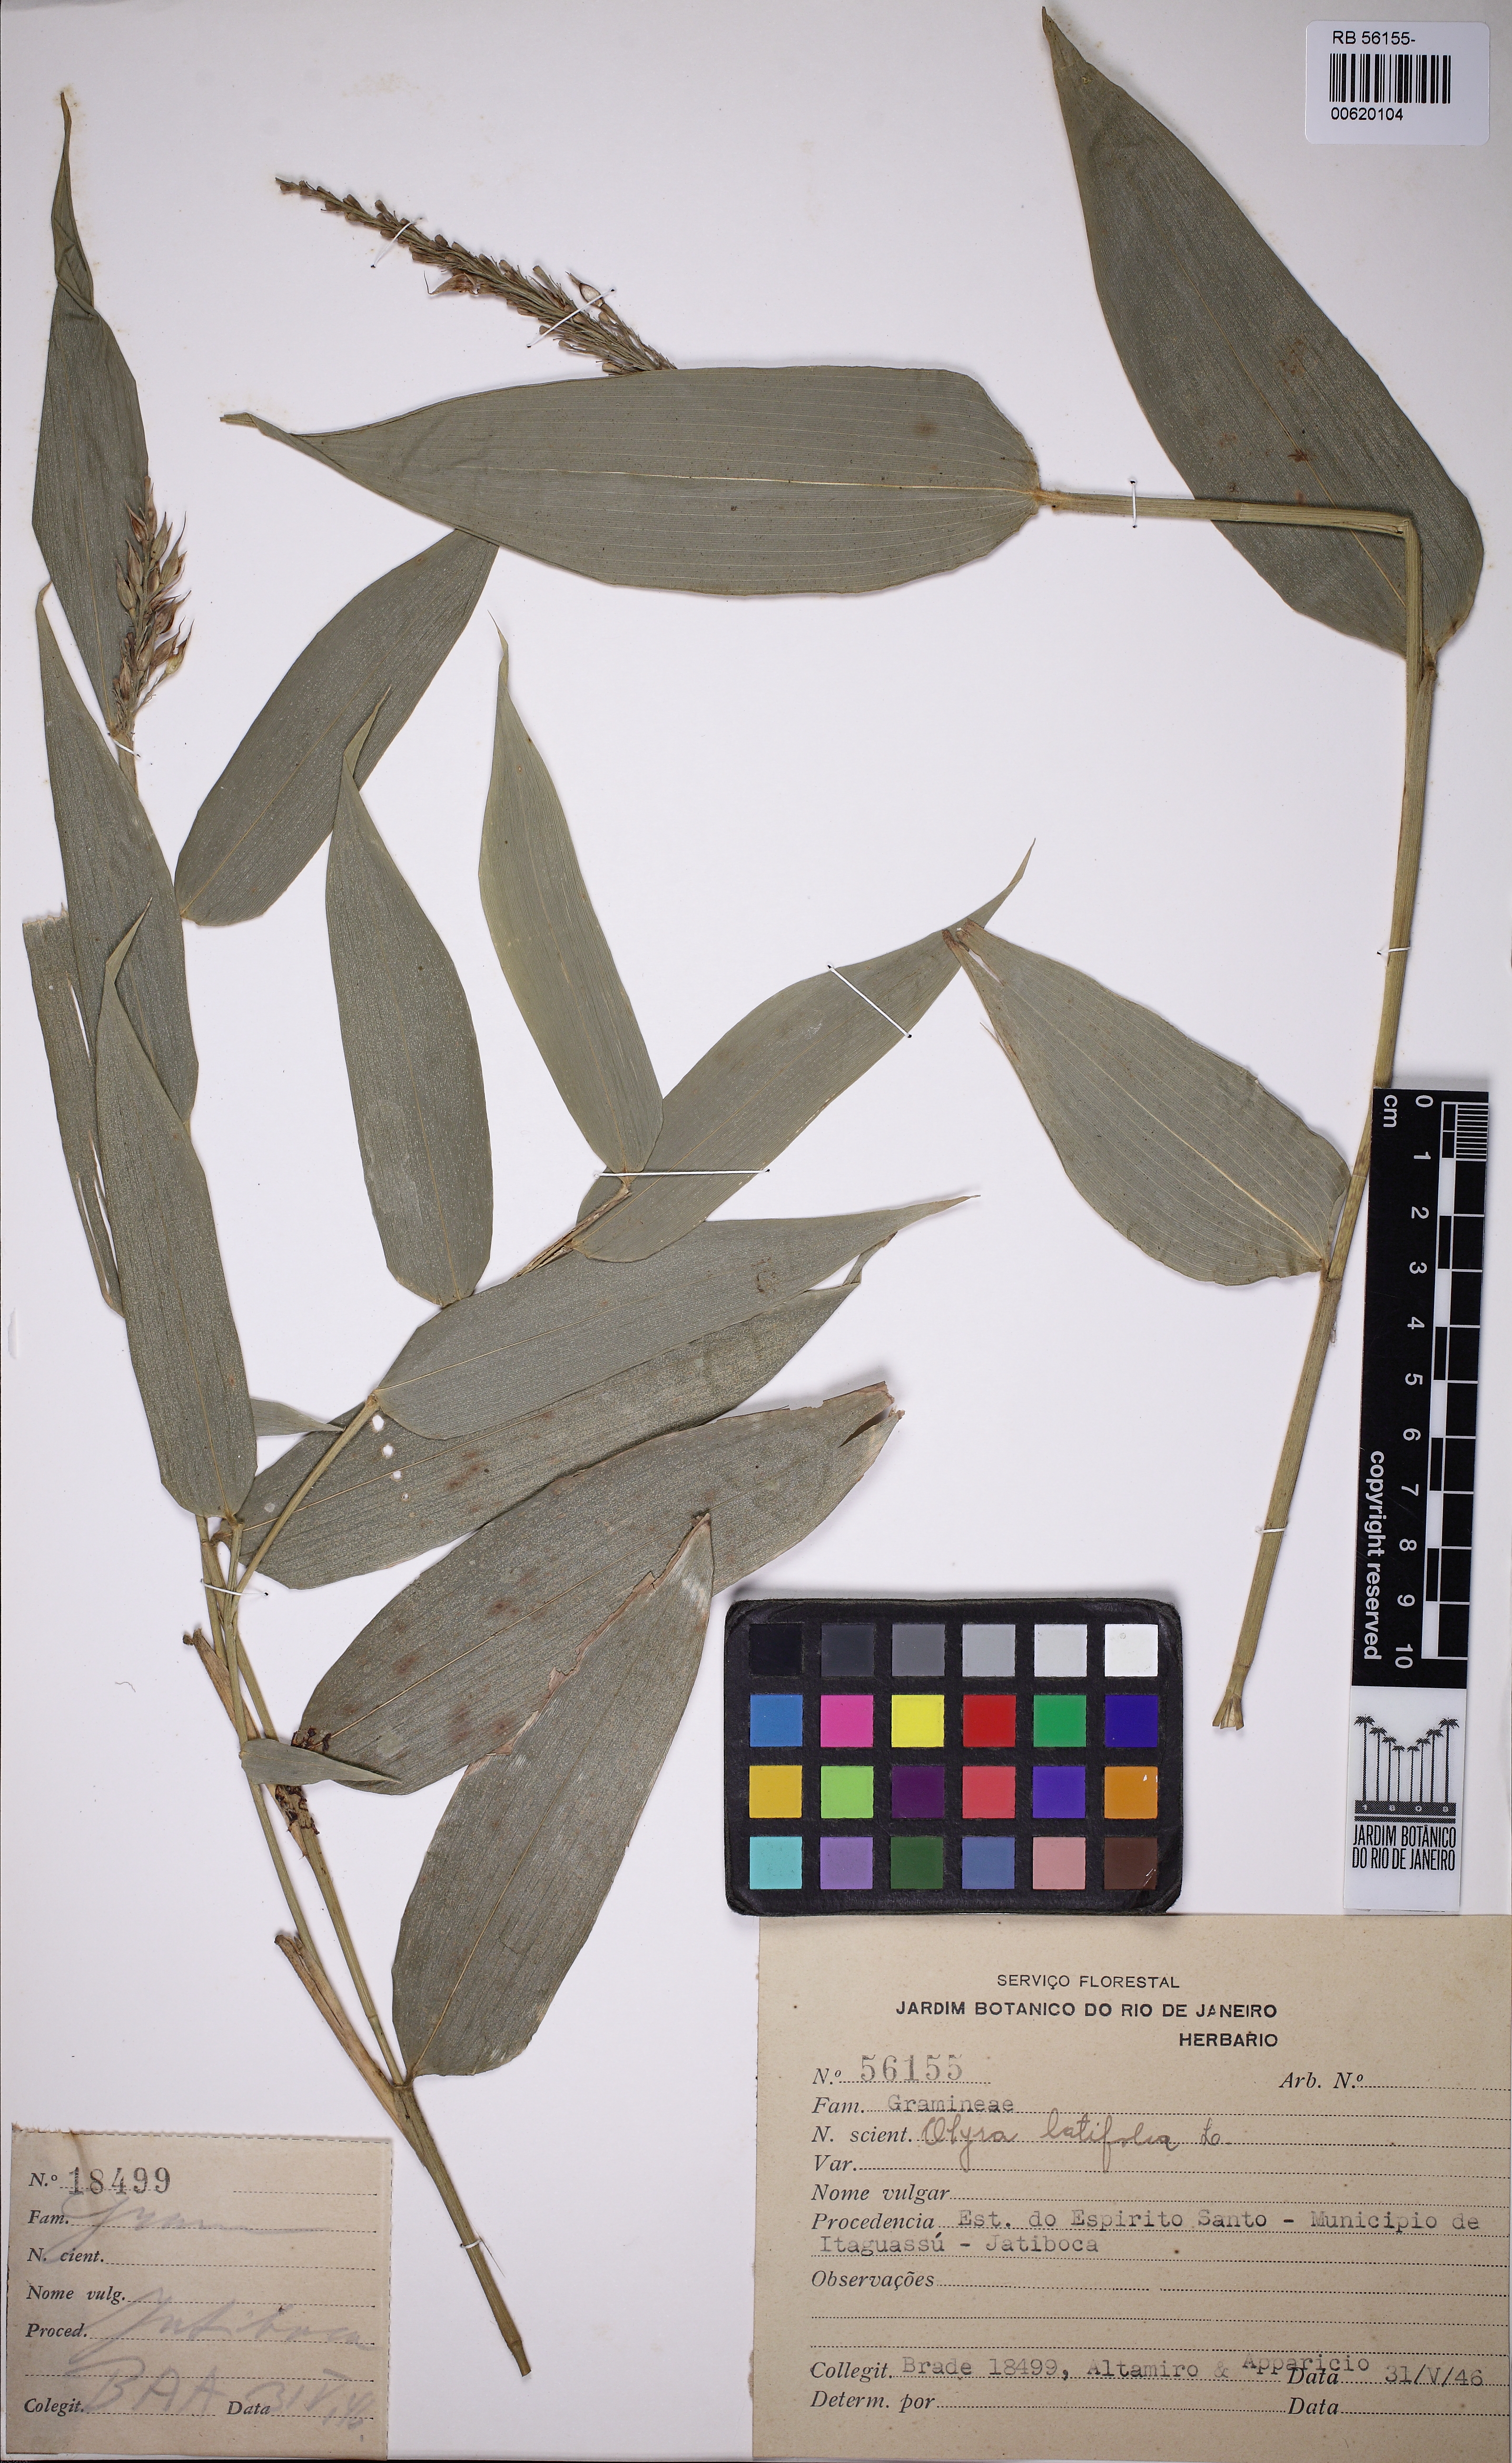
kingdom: Plantae
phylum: Tracheophyta
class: Liliopsida
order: Poales
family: Poaceae
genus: Olyra
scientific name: Olyra latifolia
